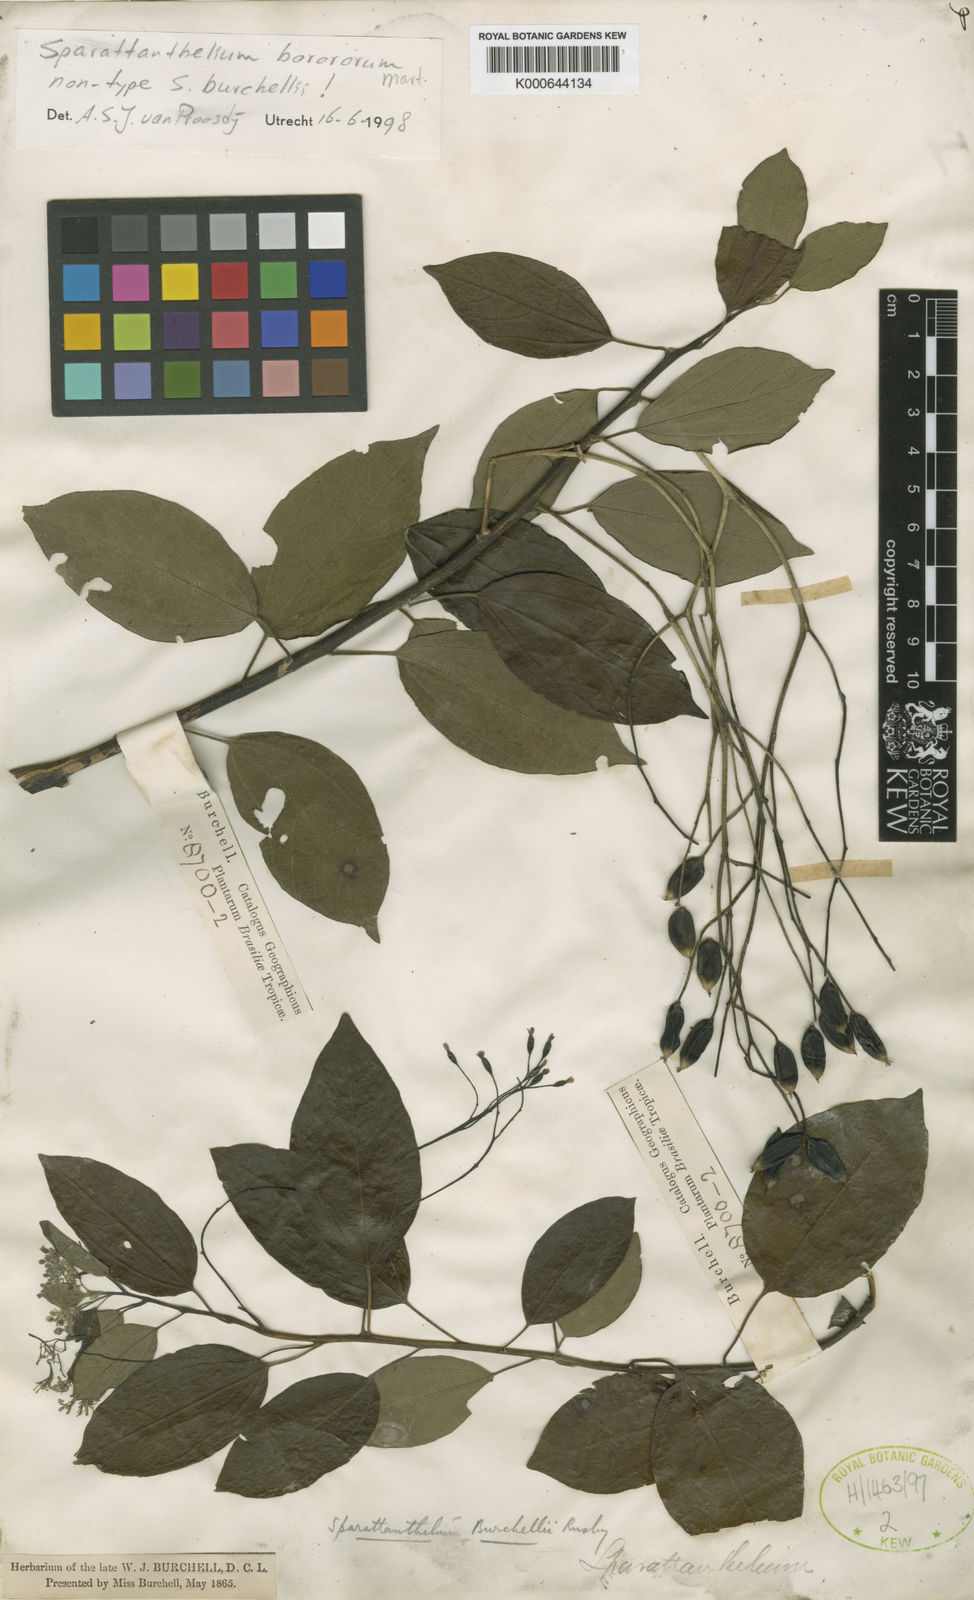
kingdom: Plantae
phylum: Tracheophyta
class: Magnoliopsida
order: Laurales
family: Hernandiaceae
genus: Sparattanthelium
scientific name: Sparattanthelium borororum
